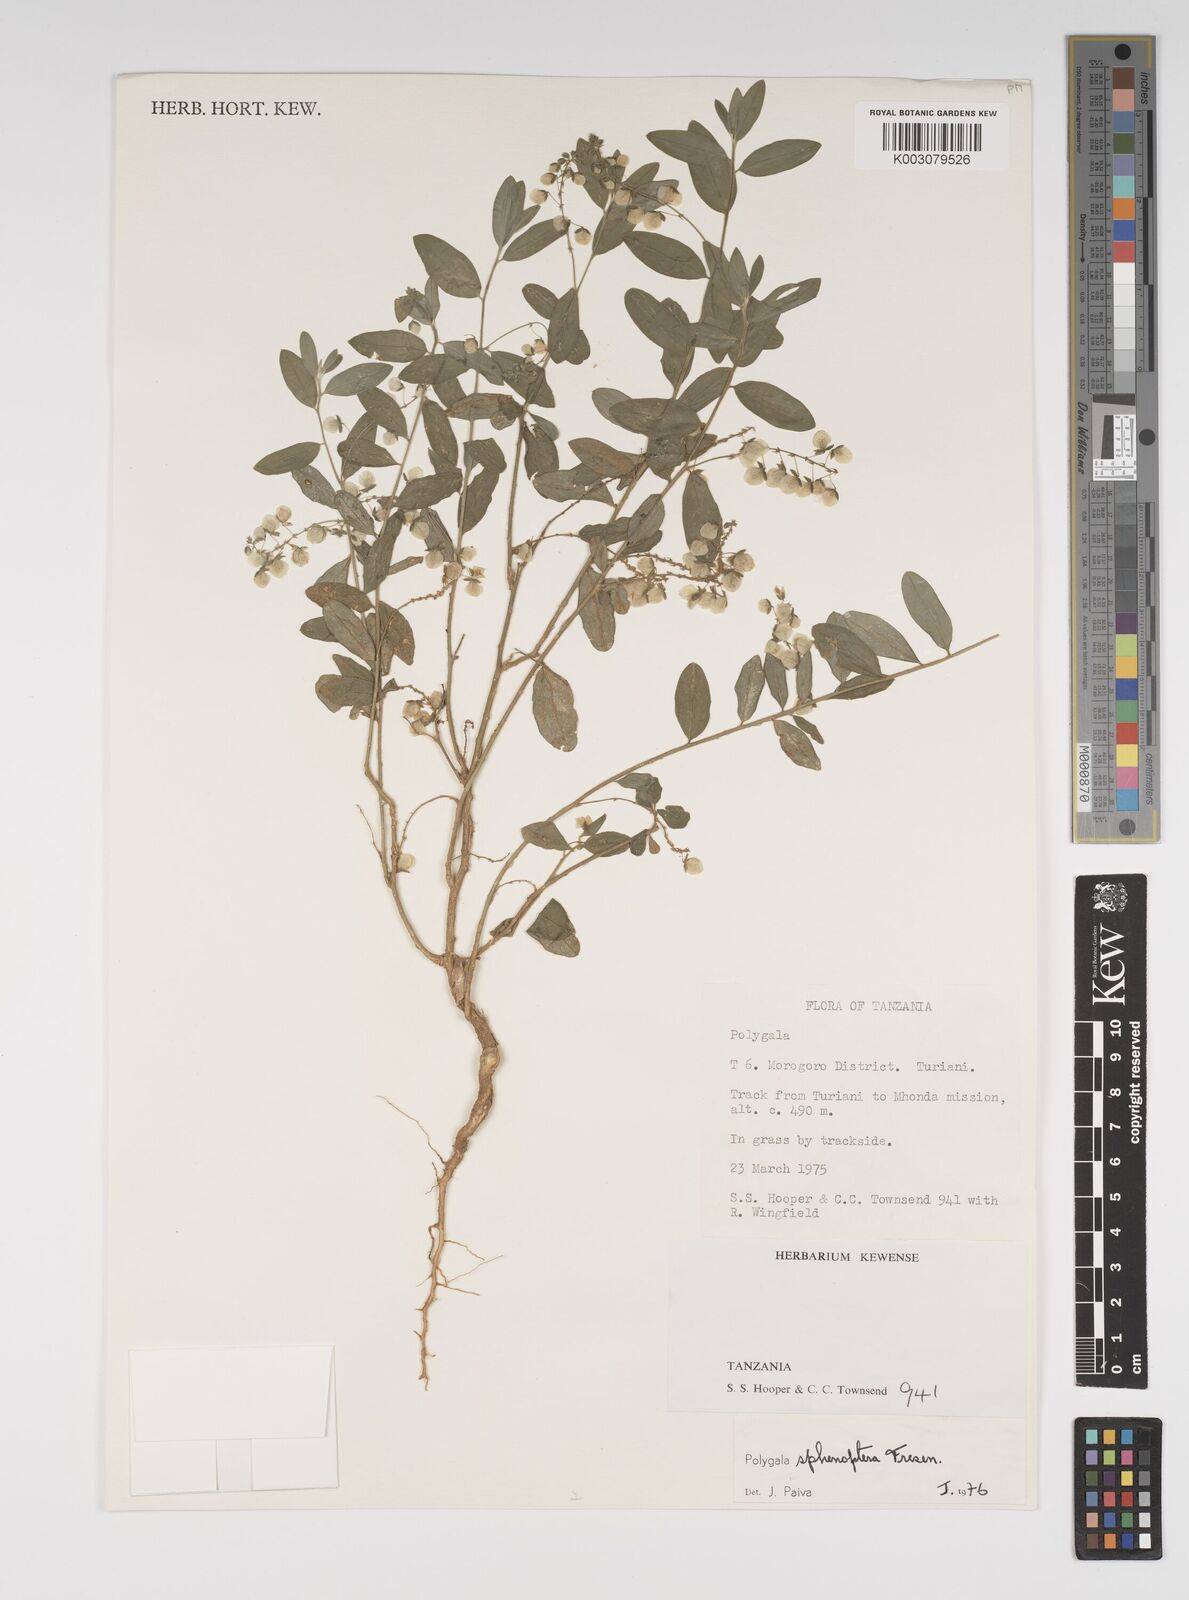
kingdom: Plantae
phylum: Tracheophyta
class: Magnoliopsida
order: Fabales
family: Polygalaceae
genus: Polygala
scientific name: Polygala sphenoptera
